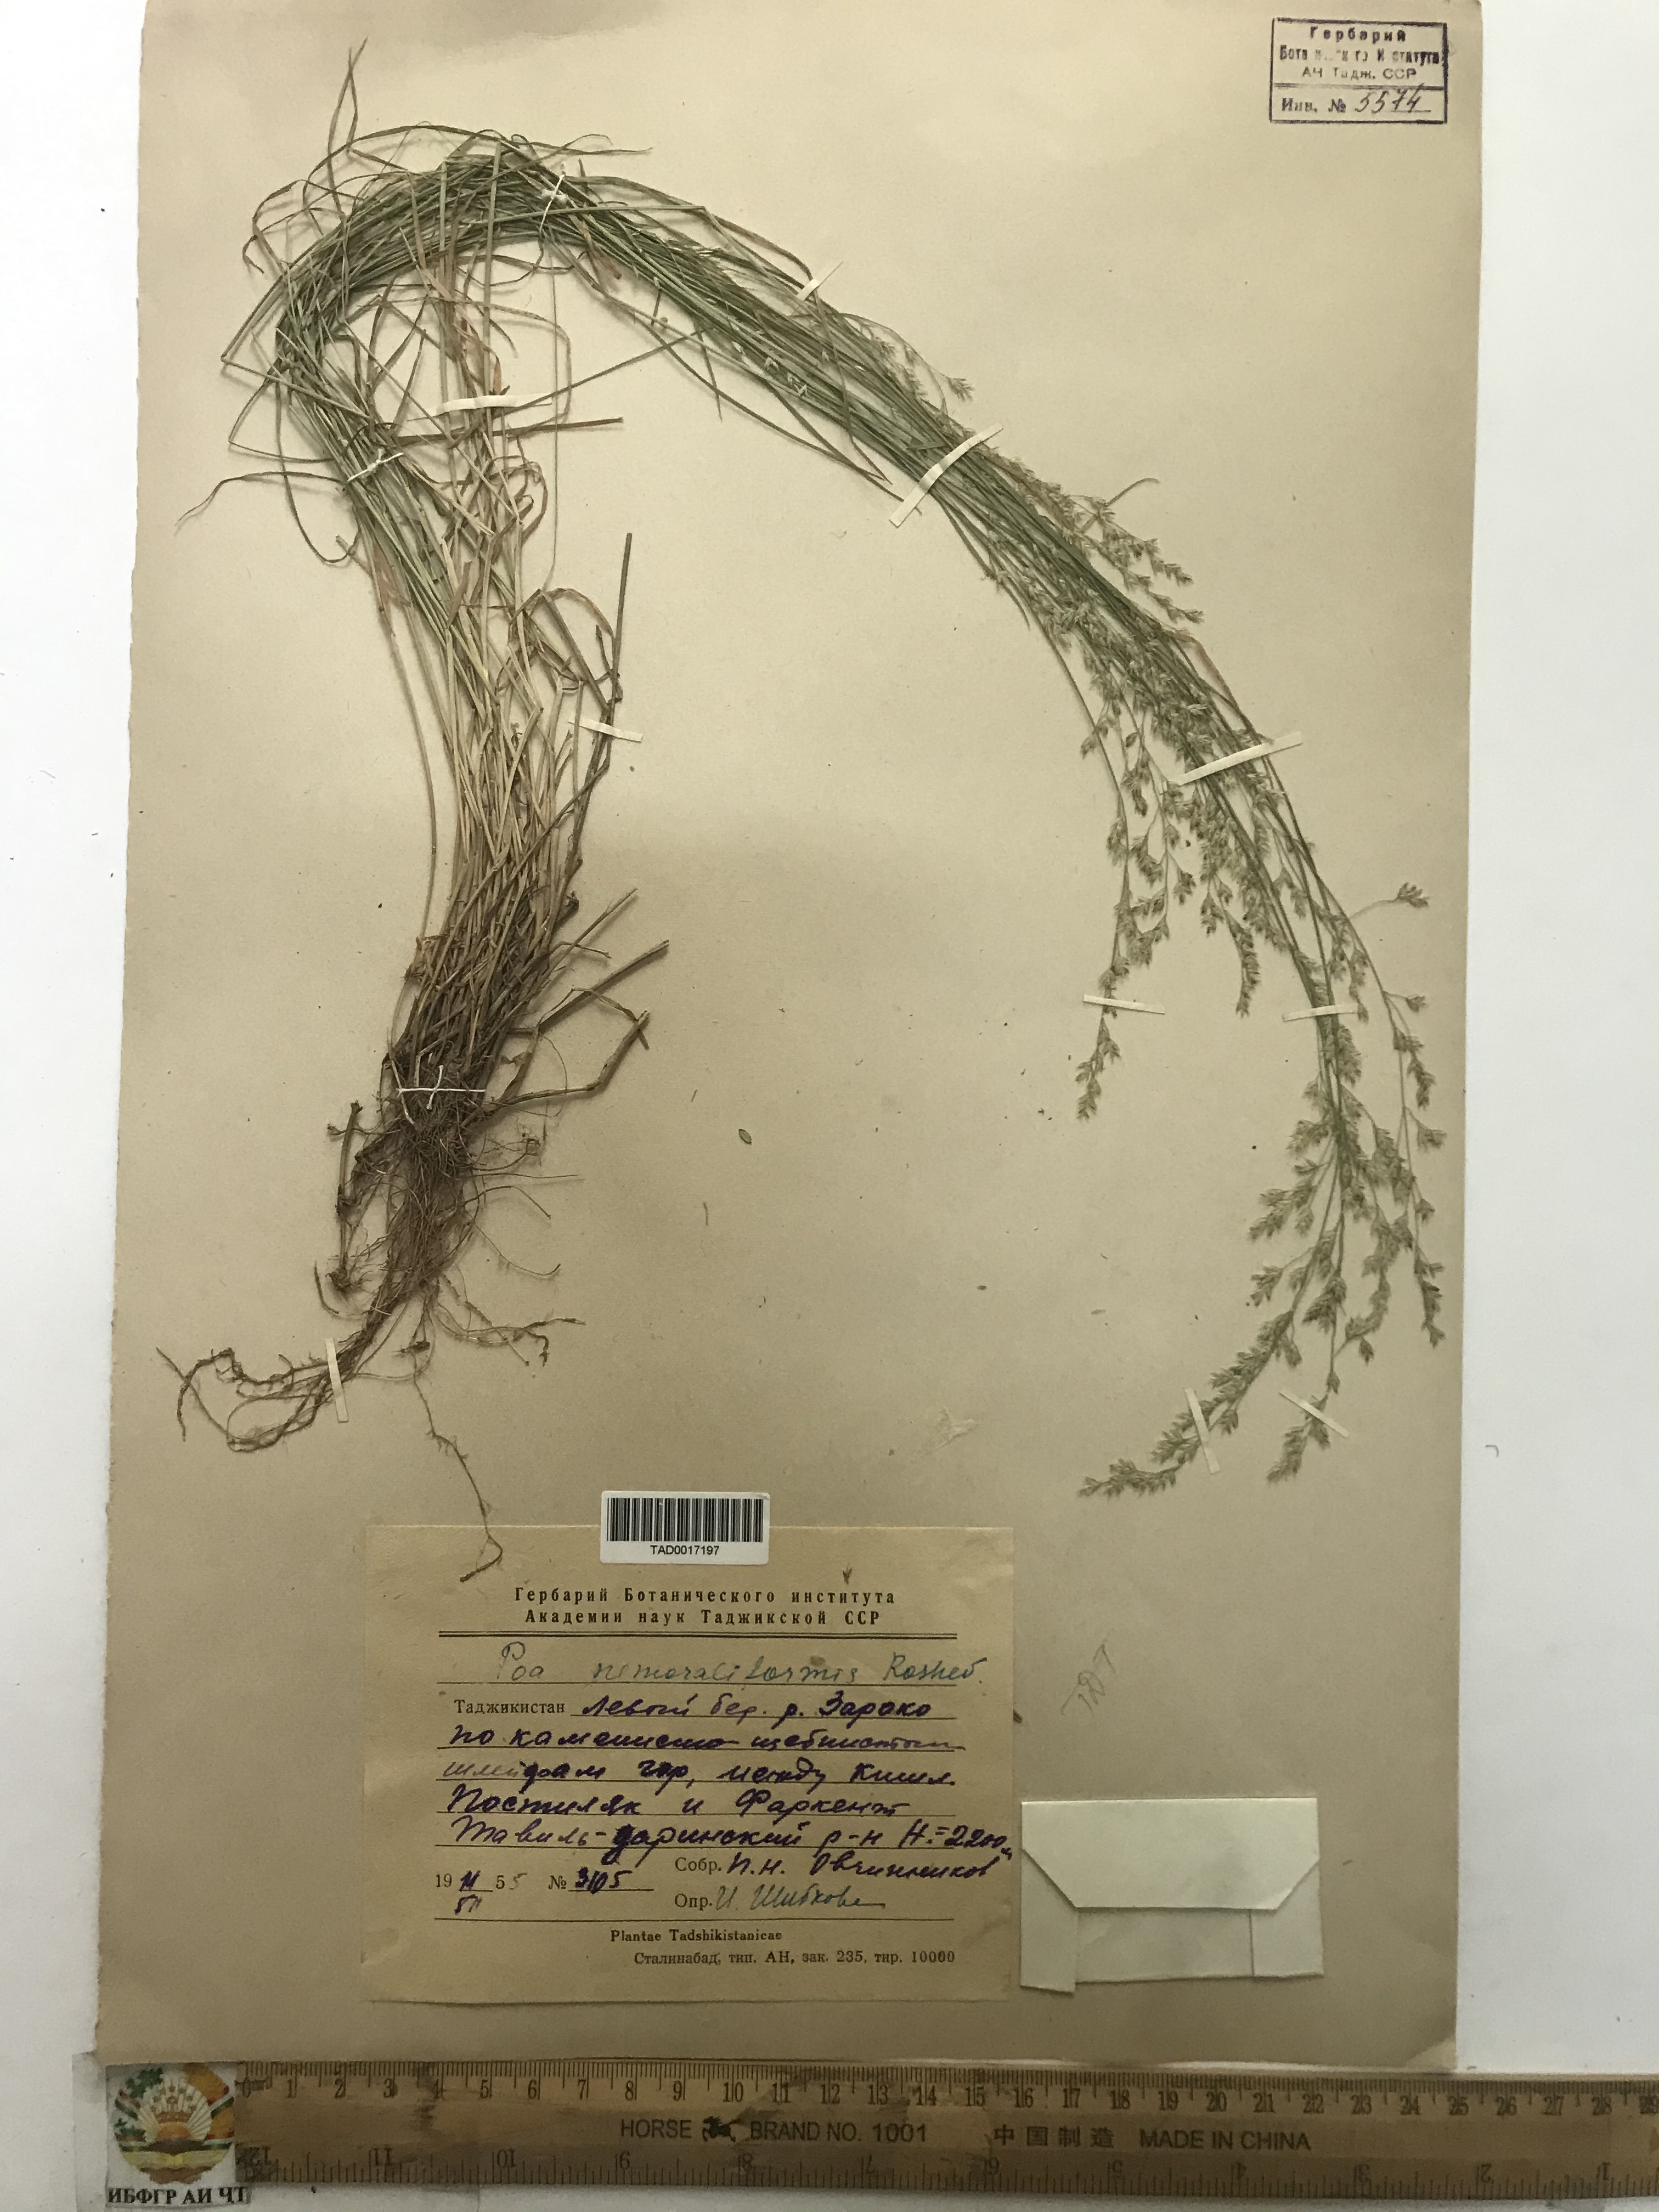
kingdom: Plantae
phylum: Tracheophyta
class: Liliopsida
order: Poales
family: Poaceae
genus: Poa
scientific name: Poa urssulensis
